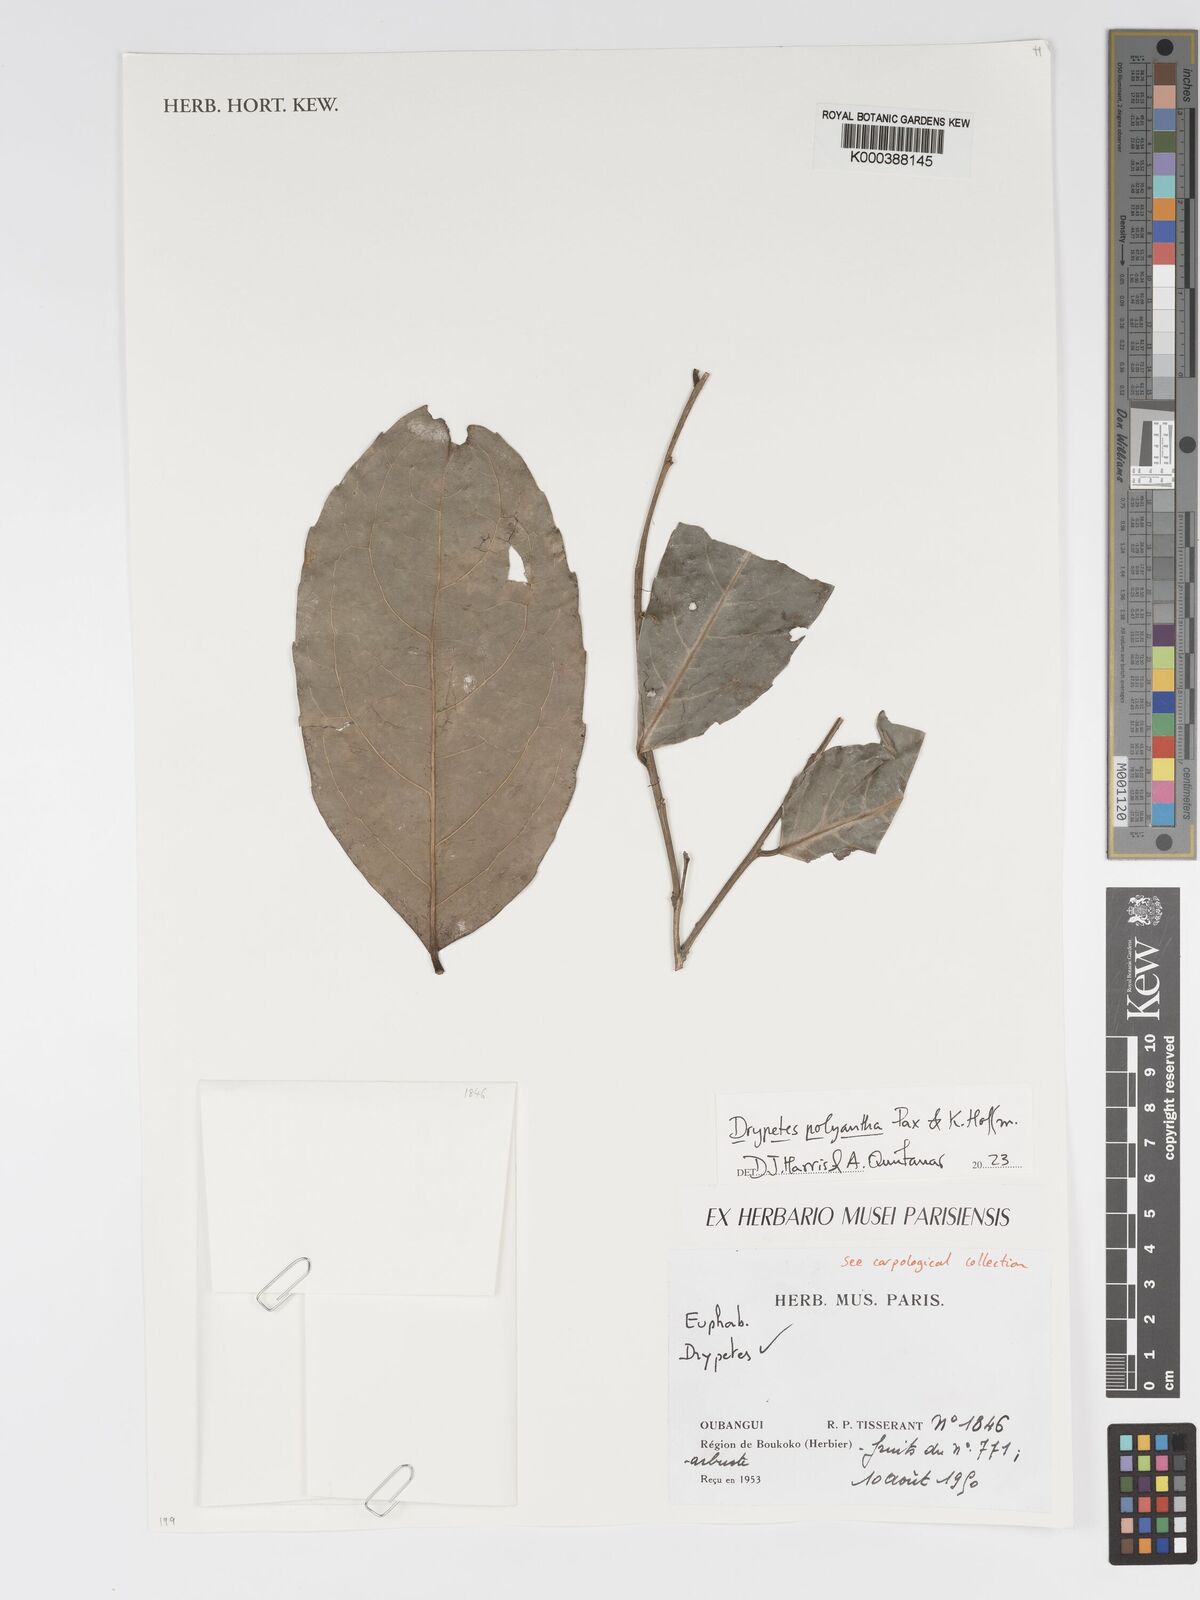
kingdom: Plantae
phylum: Tracheophyta
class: Magnoliopsida
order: Malpighiales
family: Putranjivaceae
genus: Drypetes
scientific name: Drypetes polyantha
